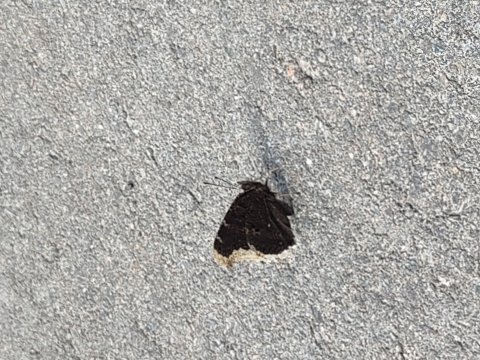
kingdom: Animalia
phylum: Arthropoda
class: Insecta
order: Lepidoptera
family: Nymphalidae
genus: Nymphalis
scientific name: Nymphalis antiopa
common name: Mourning Cloak
